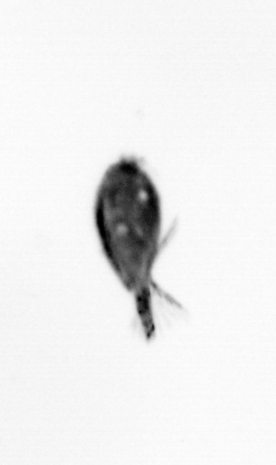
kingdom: Animalia
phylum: Arthropoda
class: Maxillopoda
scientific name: Maxillopoda
